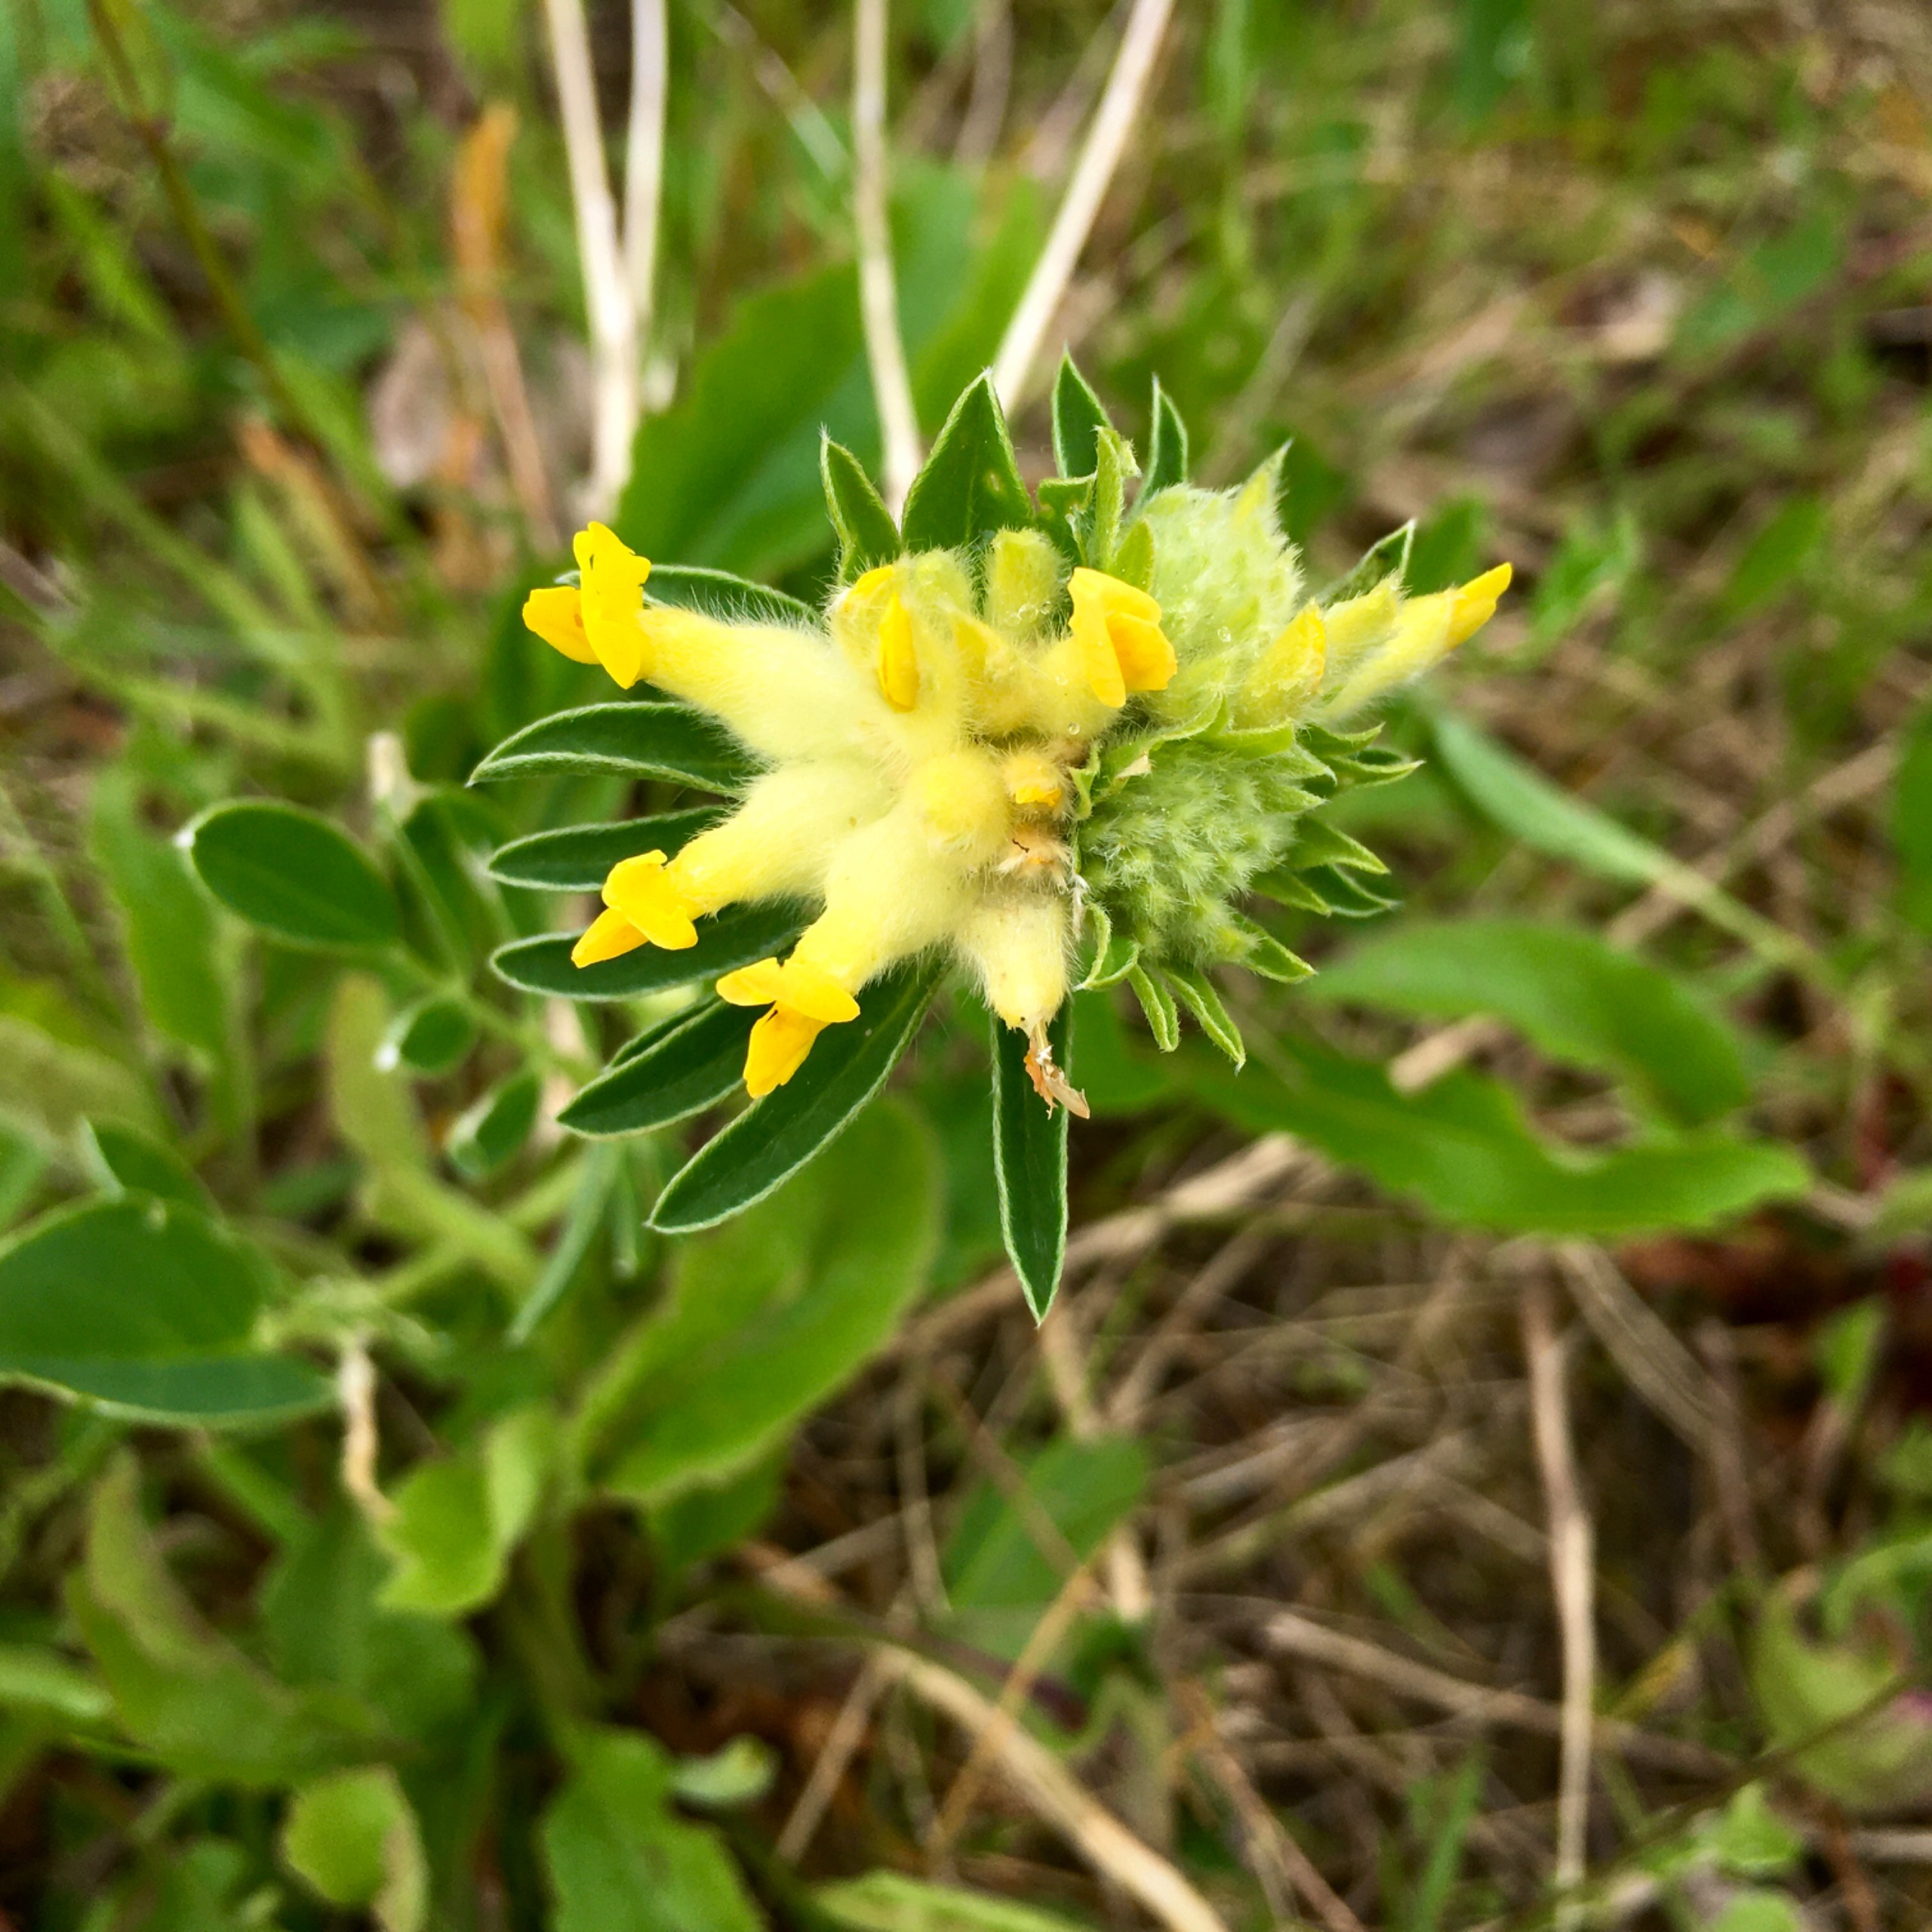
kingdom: Plantae
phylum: Tracheophyta
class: Magnoliopsida
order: Fabales
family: Fabaceae
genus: Anthyllis
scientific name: Anthyllis vulneraria
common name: Rundbælg
